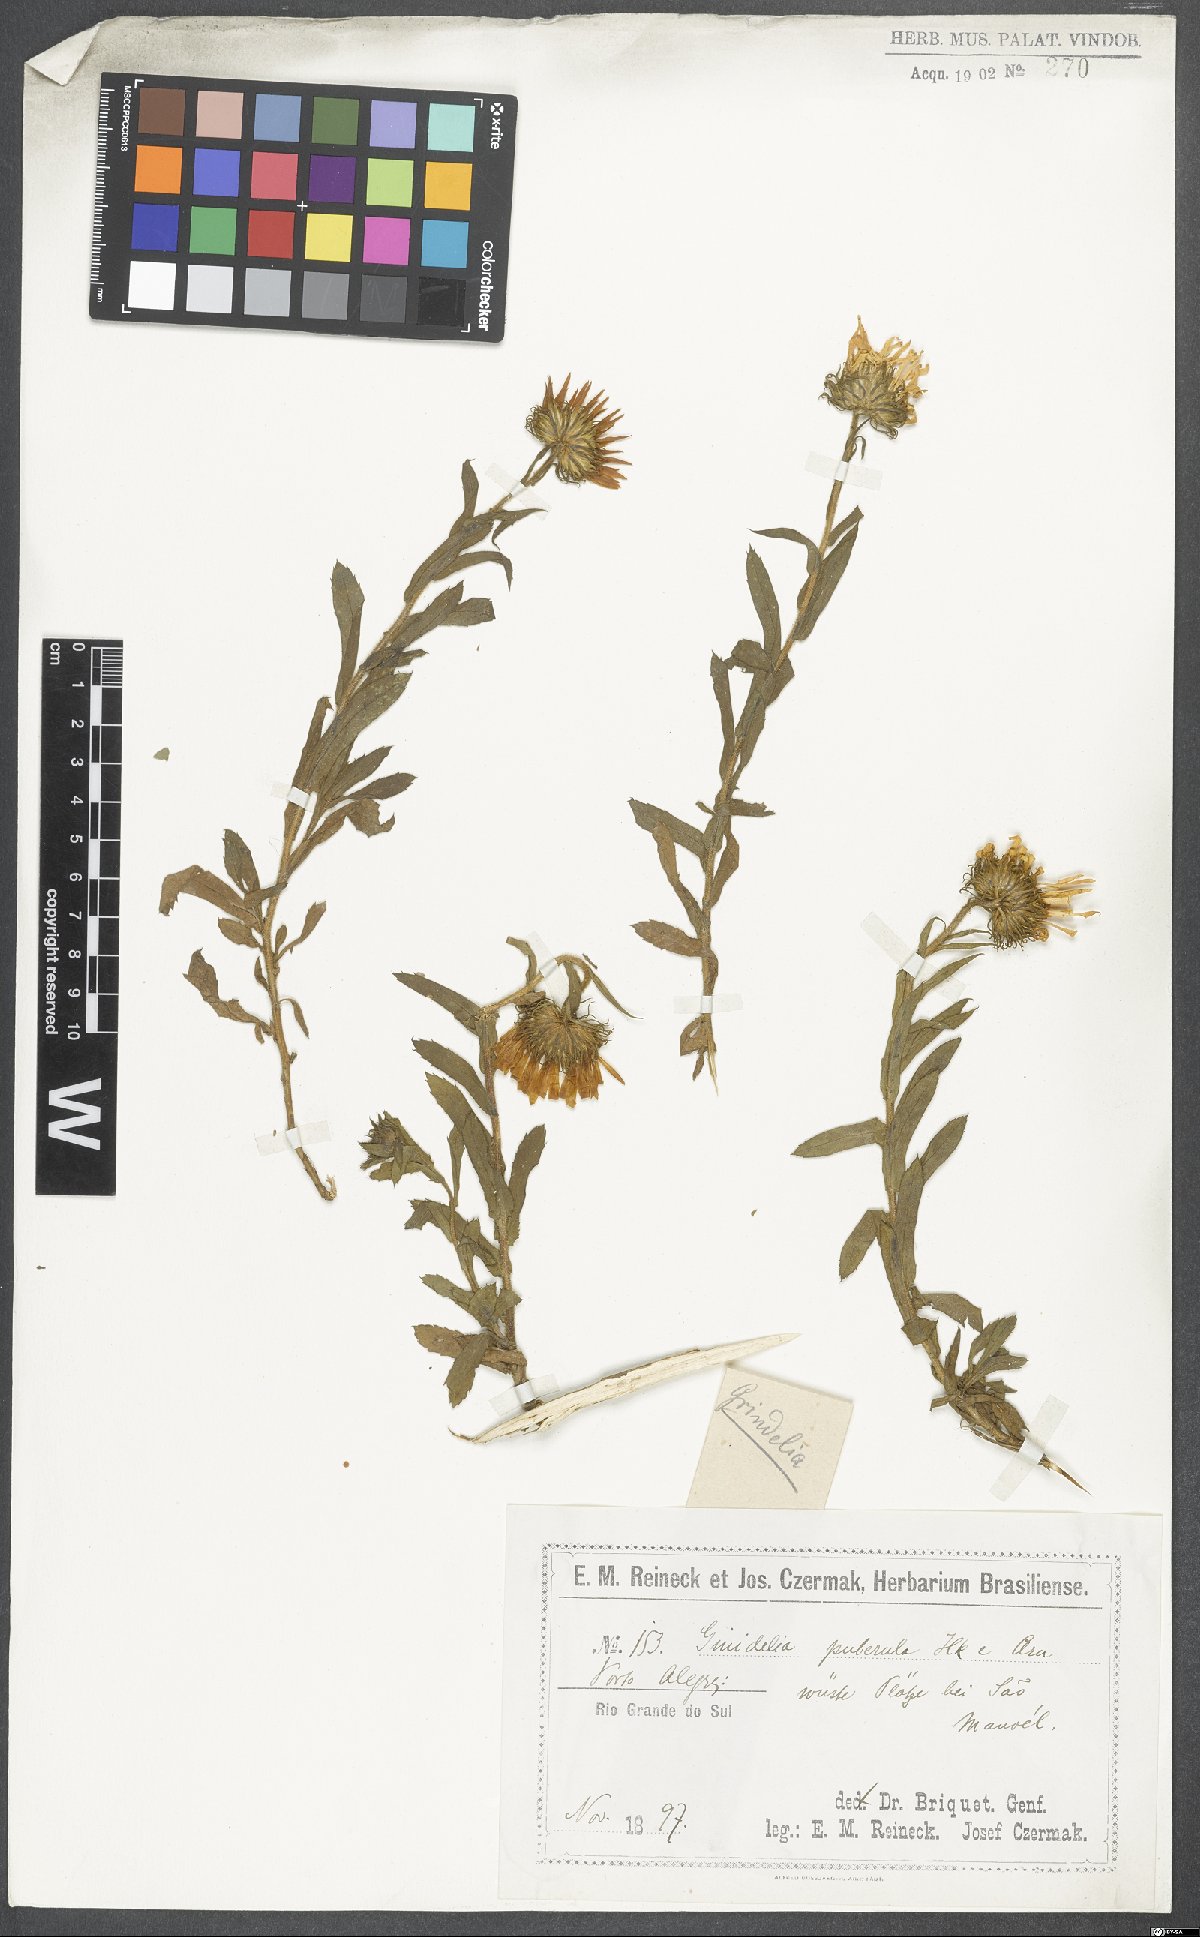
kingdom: Plantae
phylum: Tracheophyta
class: Magnoliopsida
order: Asterales
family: Asteraceae
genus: Grindelia
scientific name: Grindelia puberula
